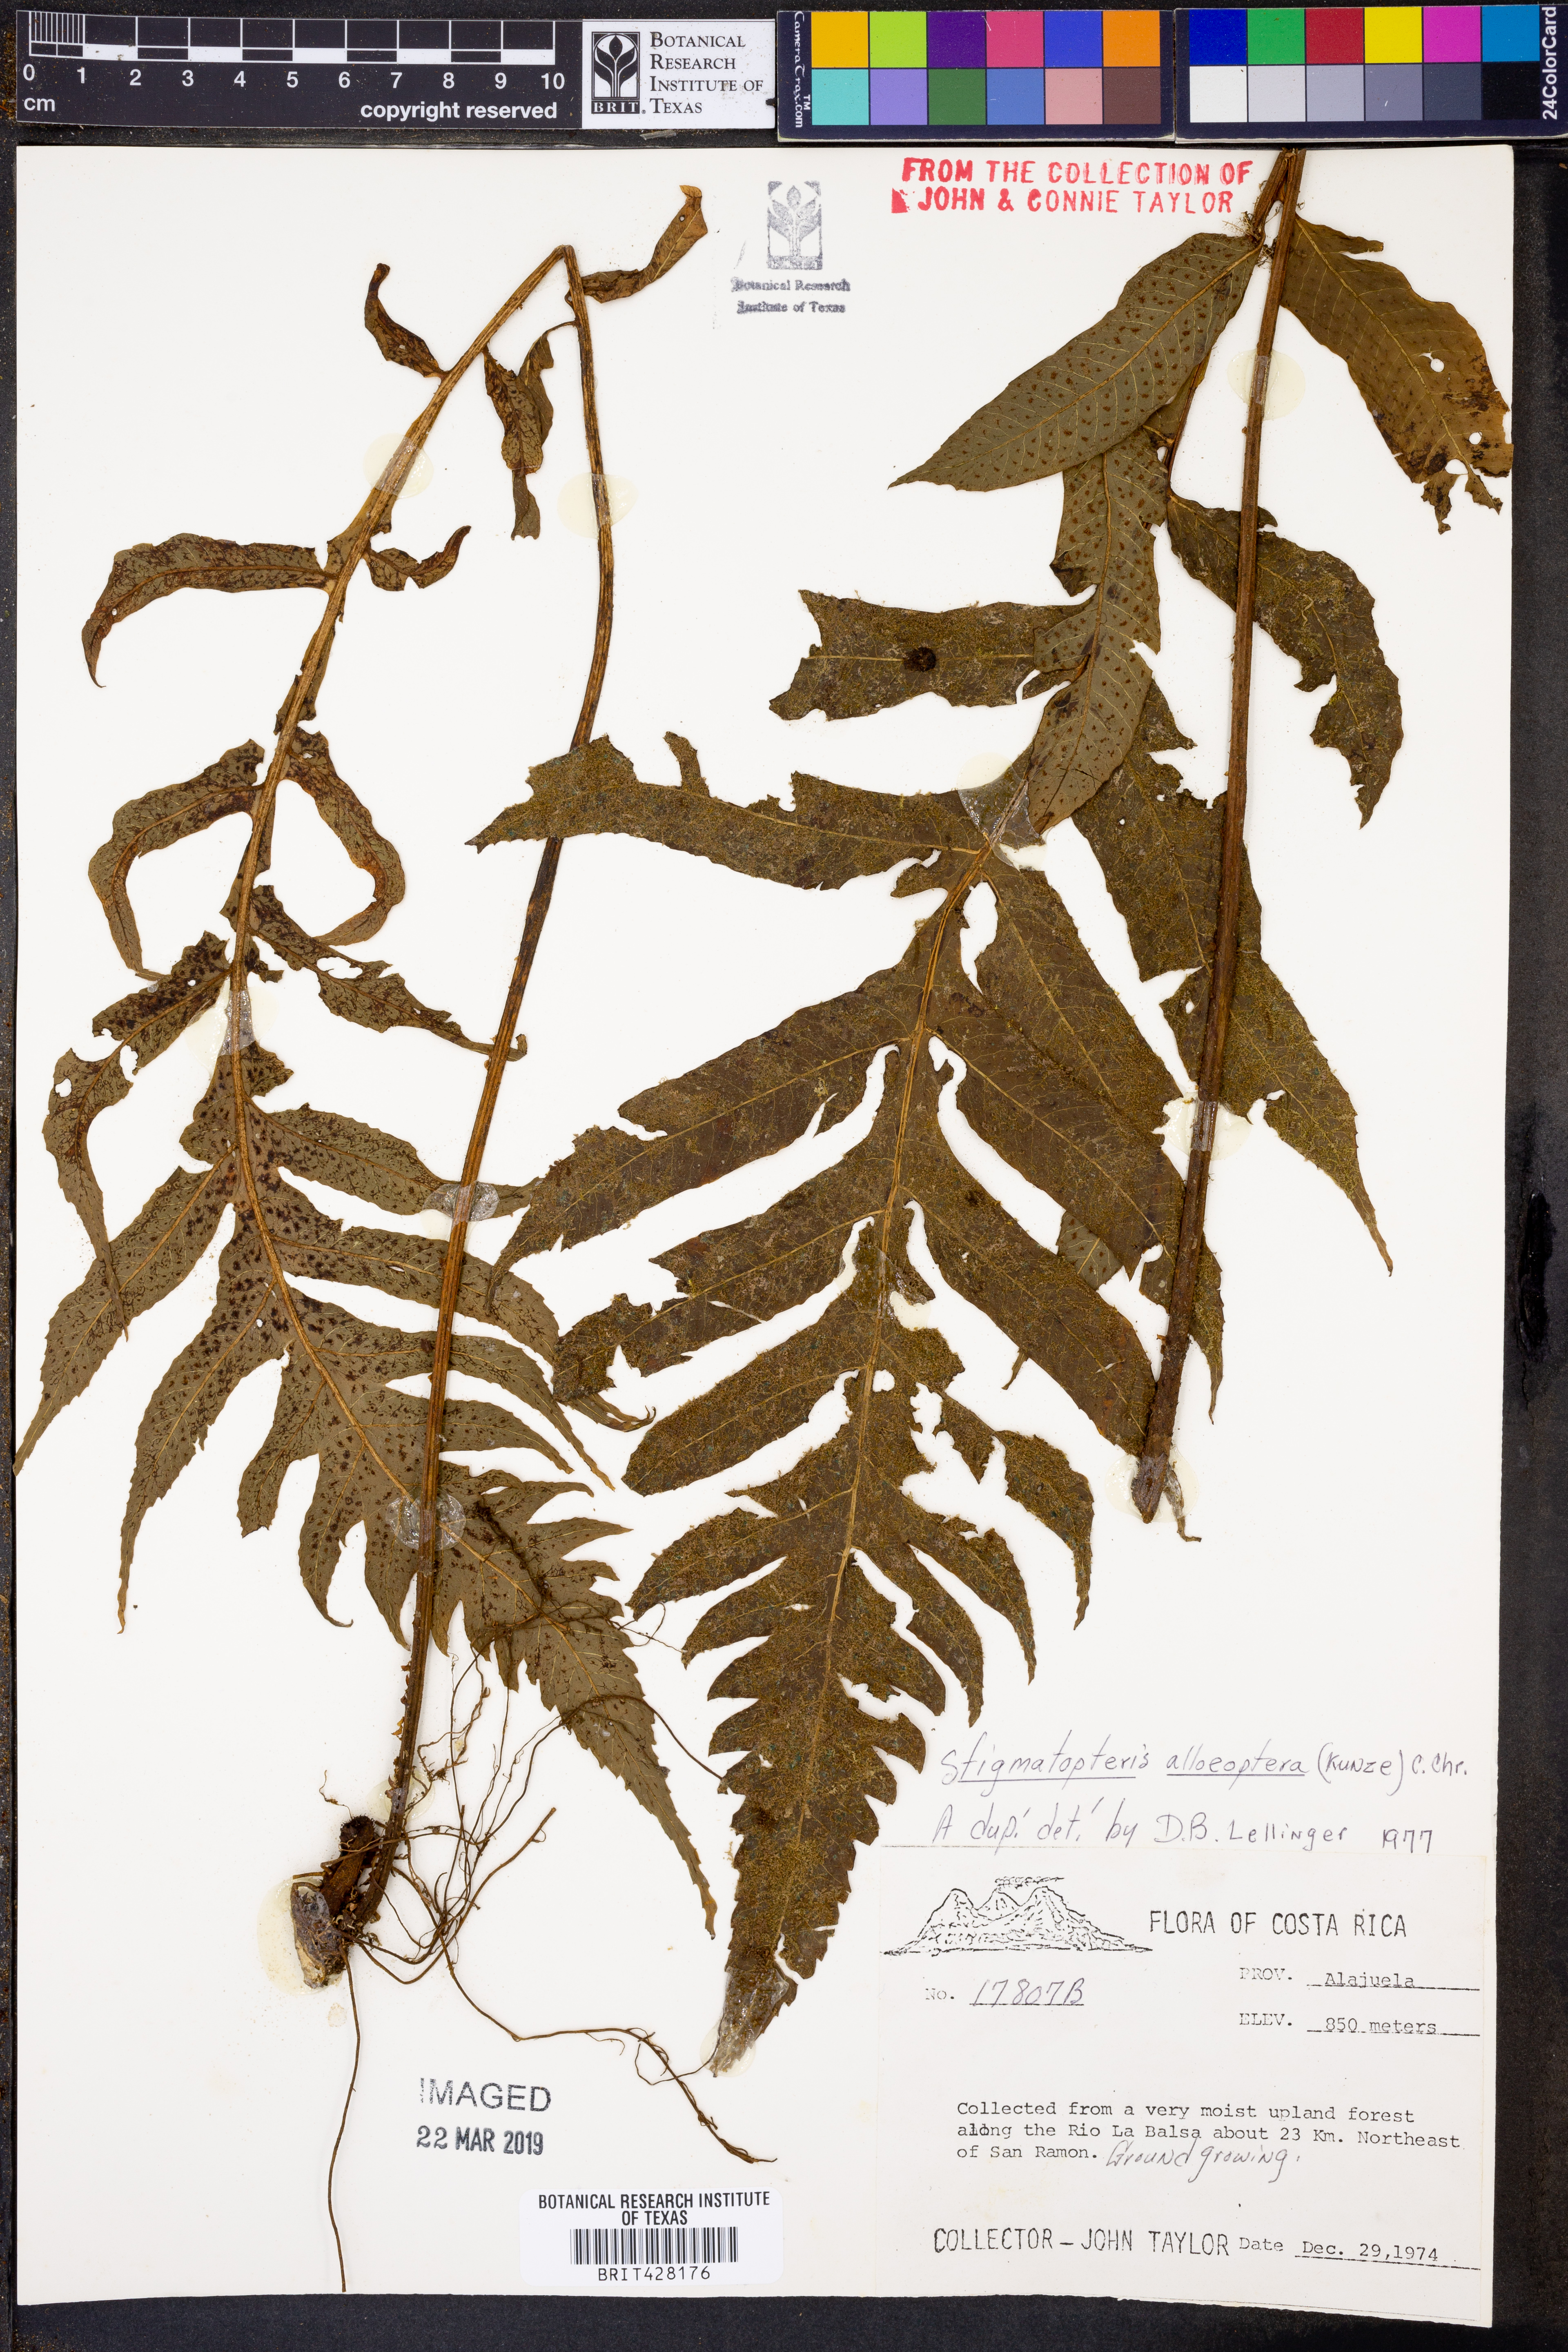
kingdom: Plantae
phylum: Tracheophyta
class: Polypodiopsida
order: Polypodiales
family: Dryopteridaceae
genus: Stigmatopteris
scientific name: Stigmatopteris alloeoptera
